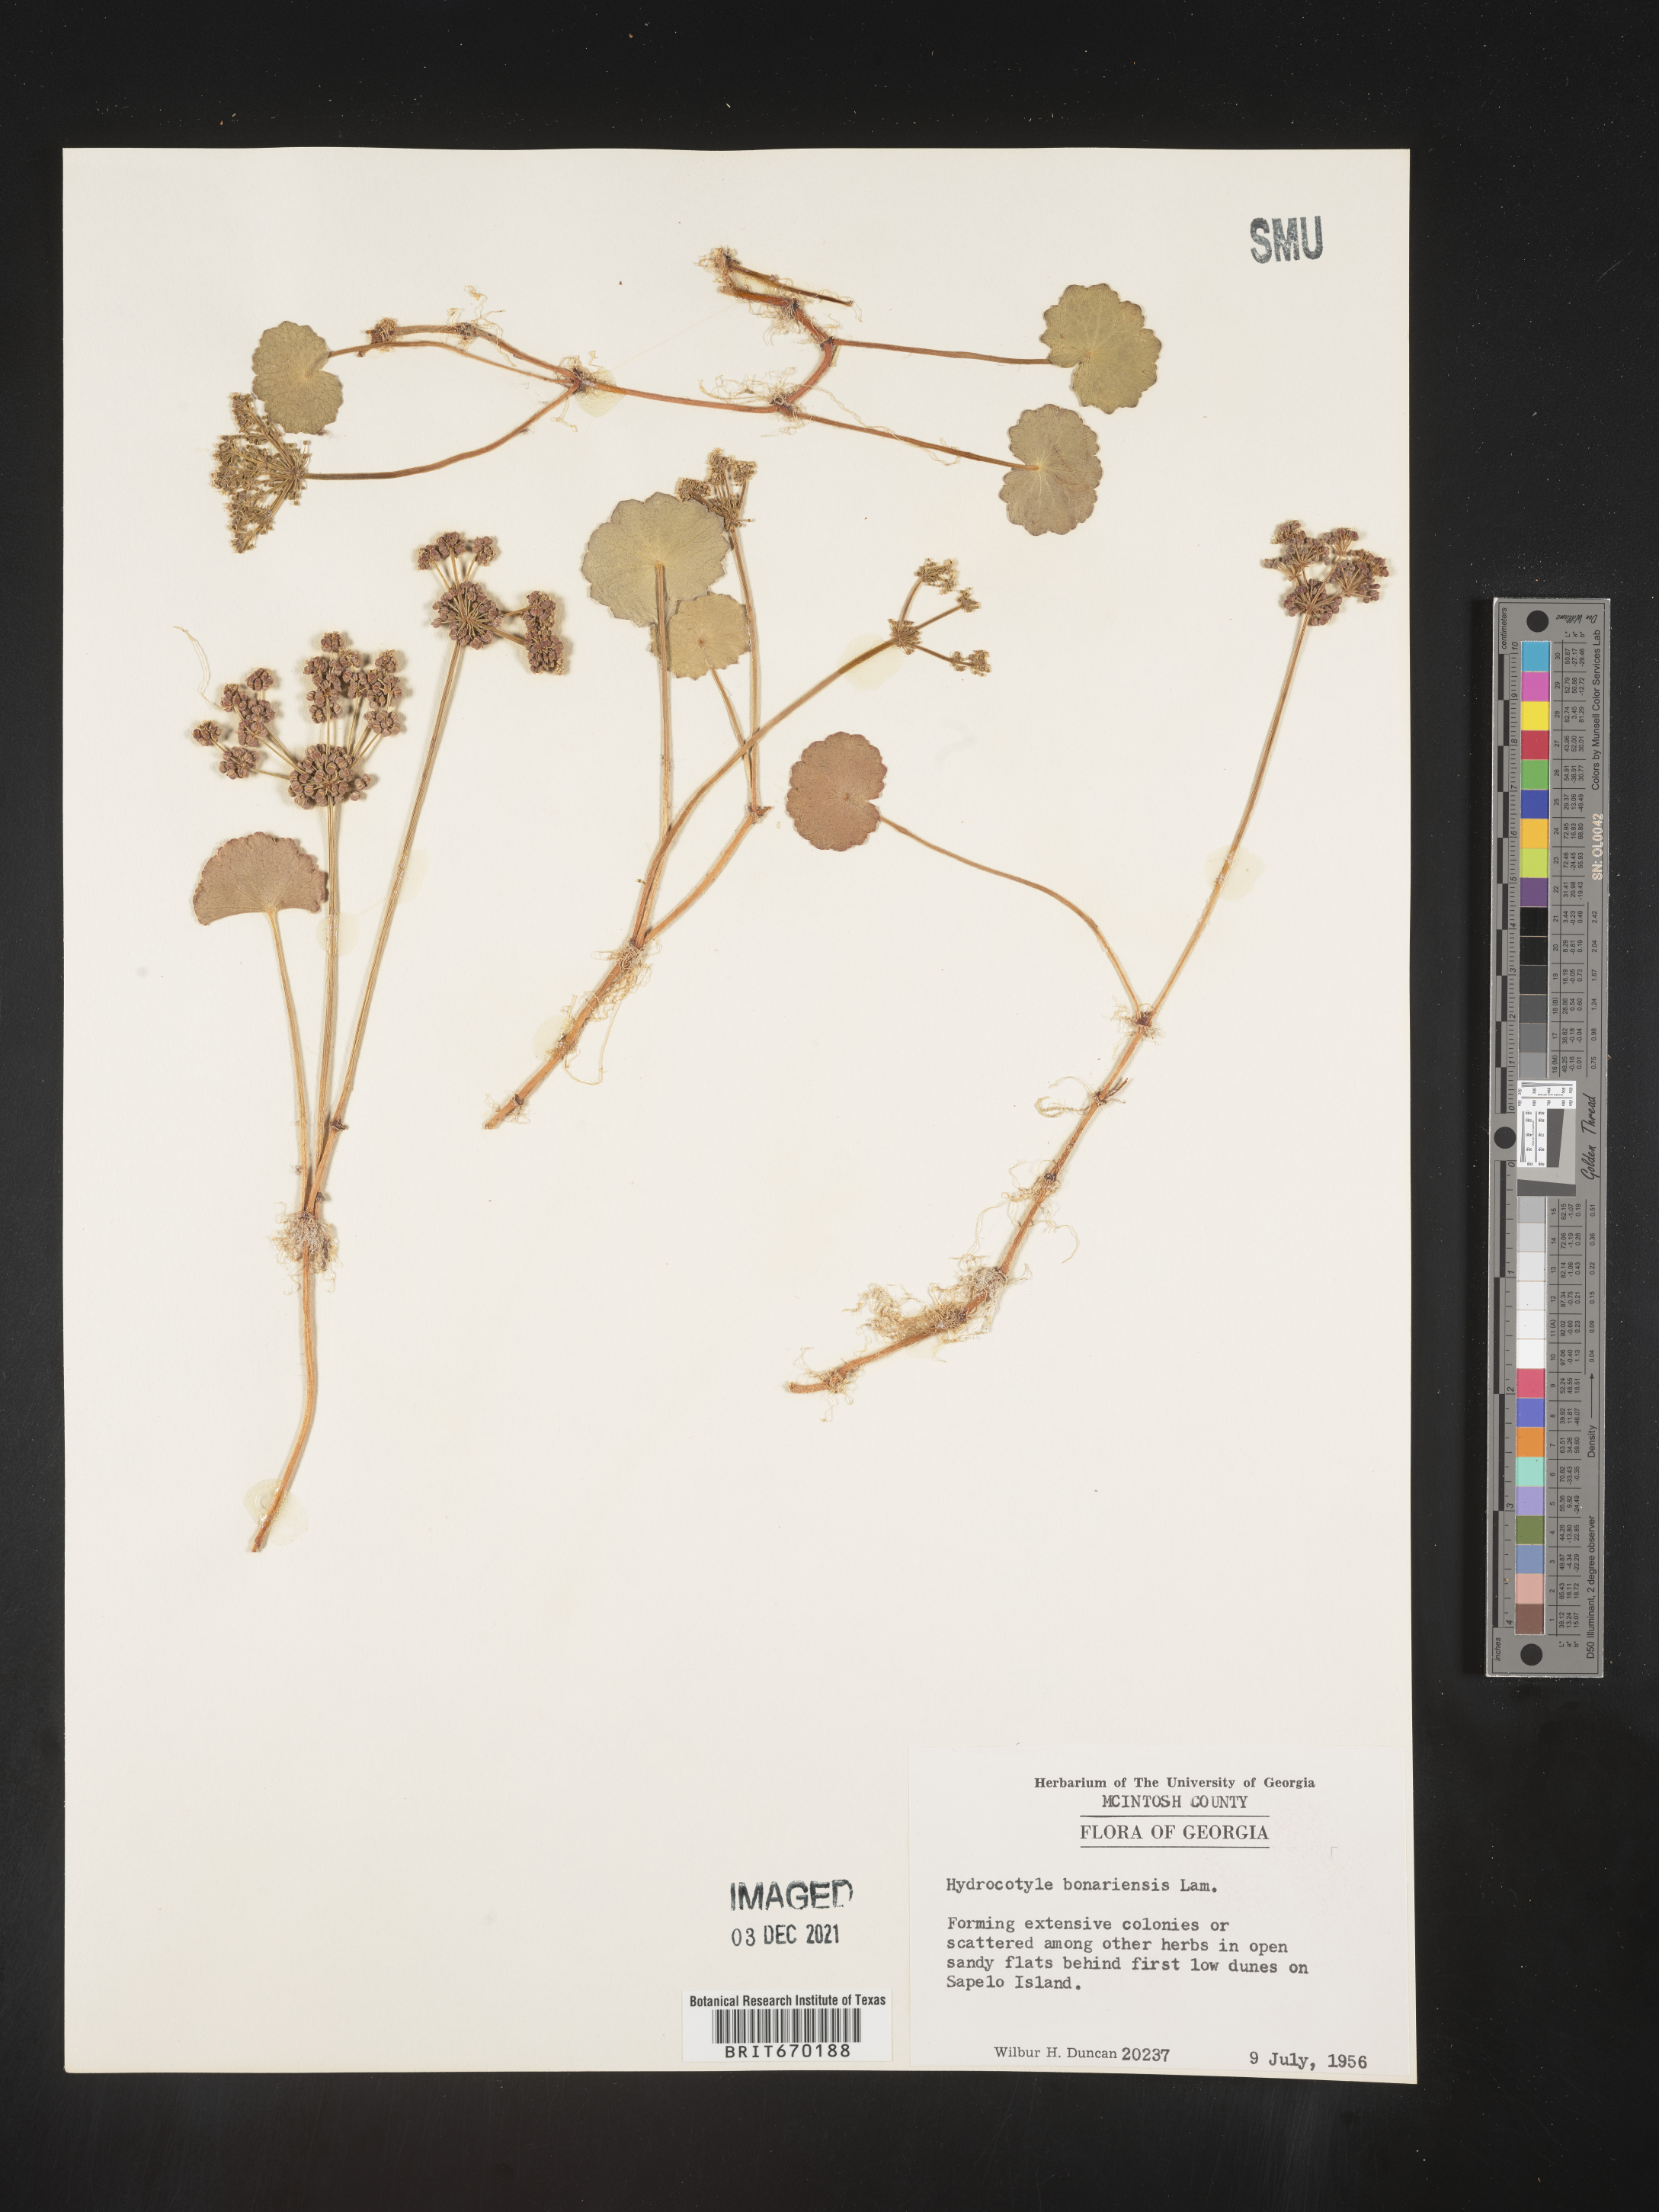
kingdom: Plantae
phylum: Tracheophyta
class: Magnoliopsida
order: Apiales
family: Araliaceae
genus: Hydrocotyle
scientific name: Hydrocotyle bonariensis
